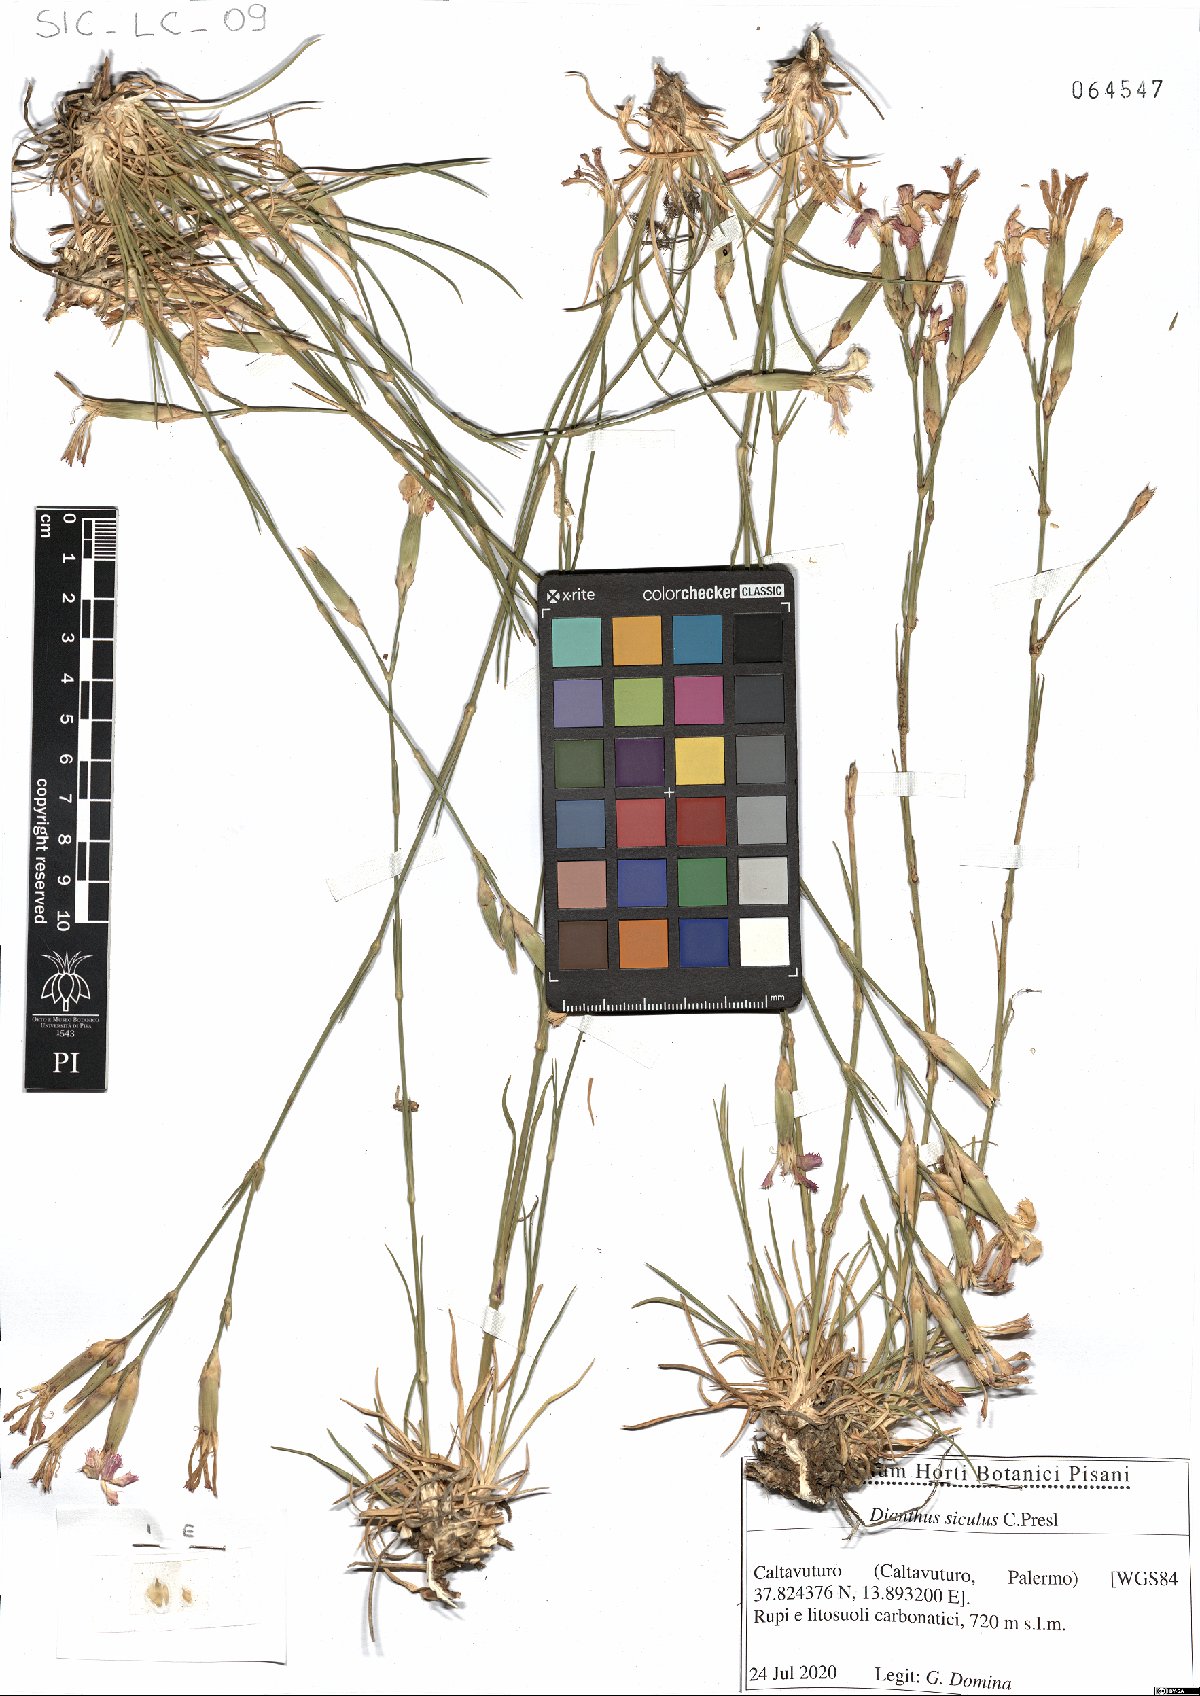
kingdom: Plantae
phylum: Tracheophyta
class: Magnoliopsida
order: Caryophyllales
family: Caryophyllaceae
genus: Dianthus
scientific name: Dianthus siculus
